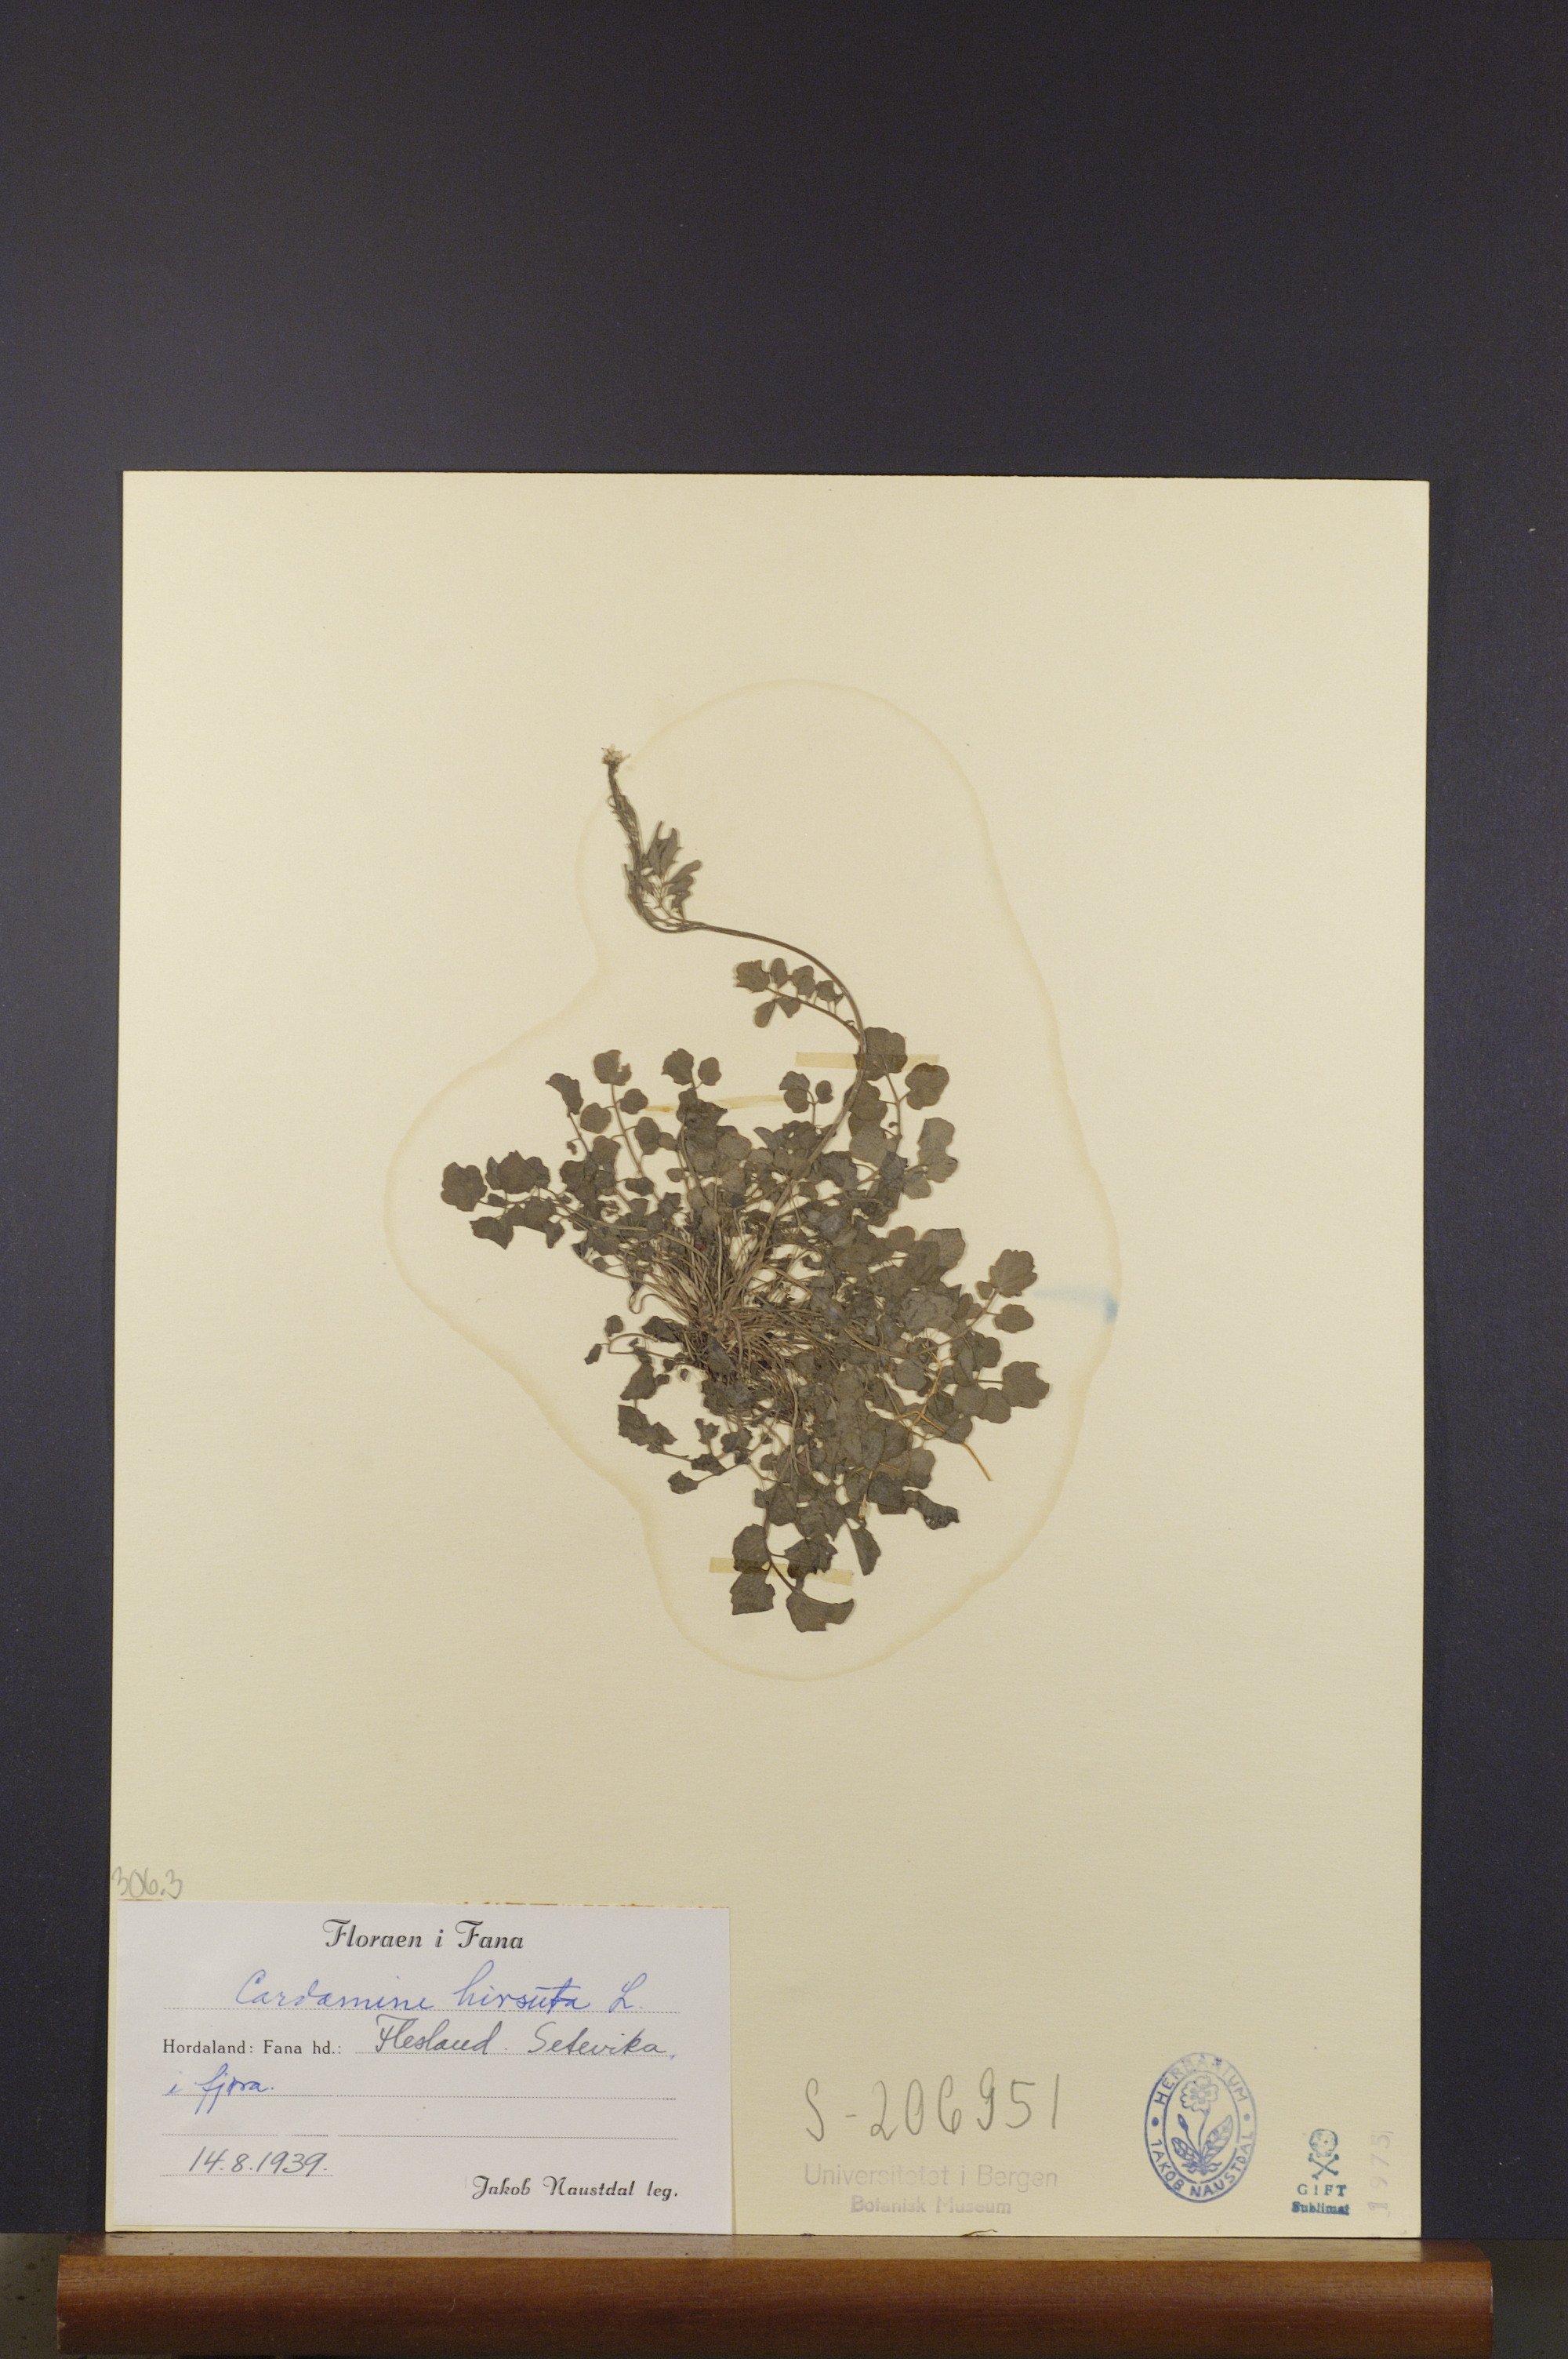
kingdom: Plantae
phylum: Tracheophyta
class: Magnoliopsida
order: Brassicales
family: Brassicaceae
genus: Cardamine
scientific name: Cardamine hirsuta
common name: Hairy bittercress
